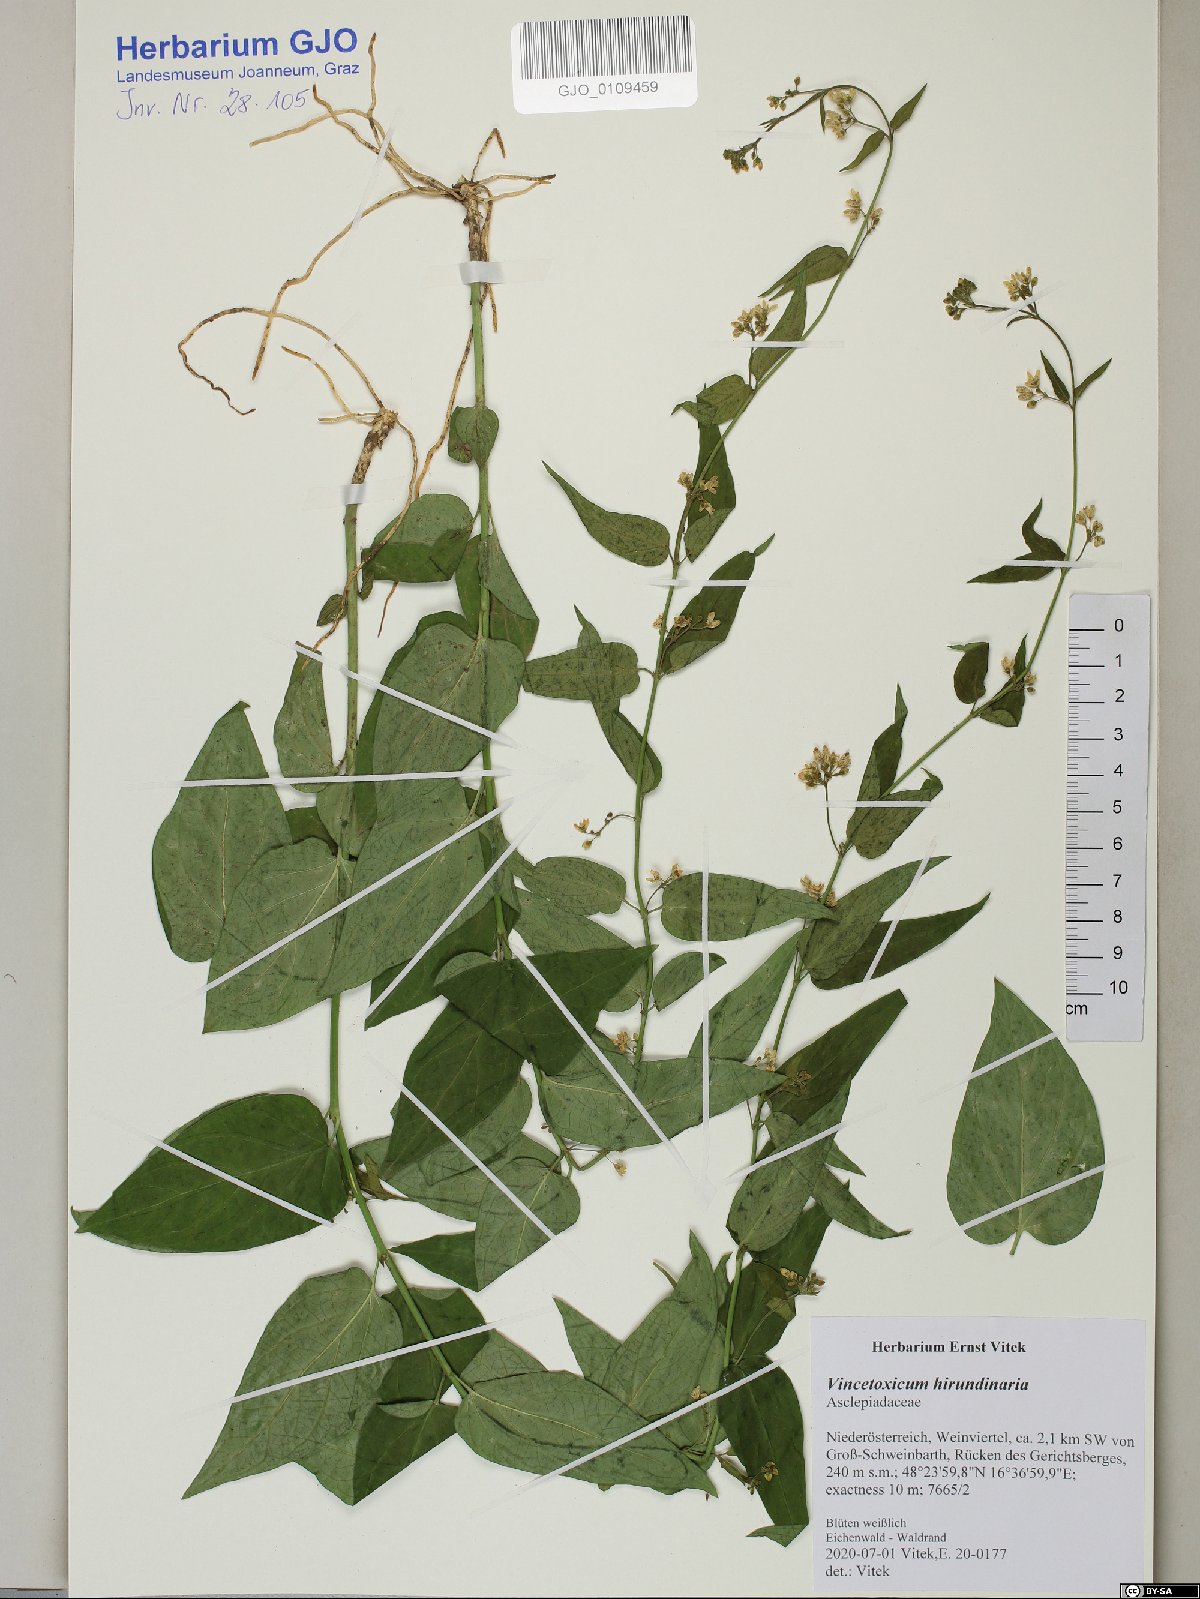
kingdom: Plantae
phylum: Tracheophyta
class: Magnoliopsida
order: Gentianales
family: Apocynaceae
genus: Vincetoxicum
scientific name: Vincetoxicum hirundinaria
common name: White swallowwort
